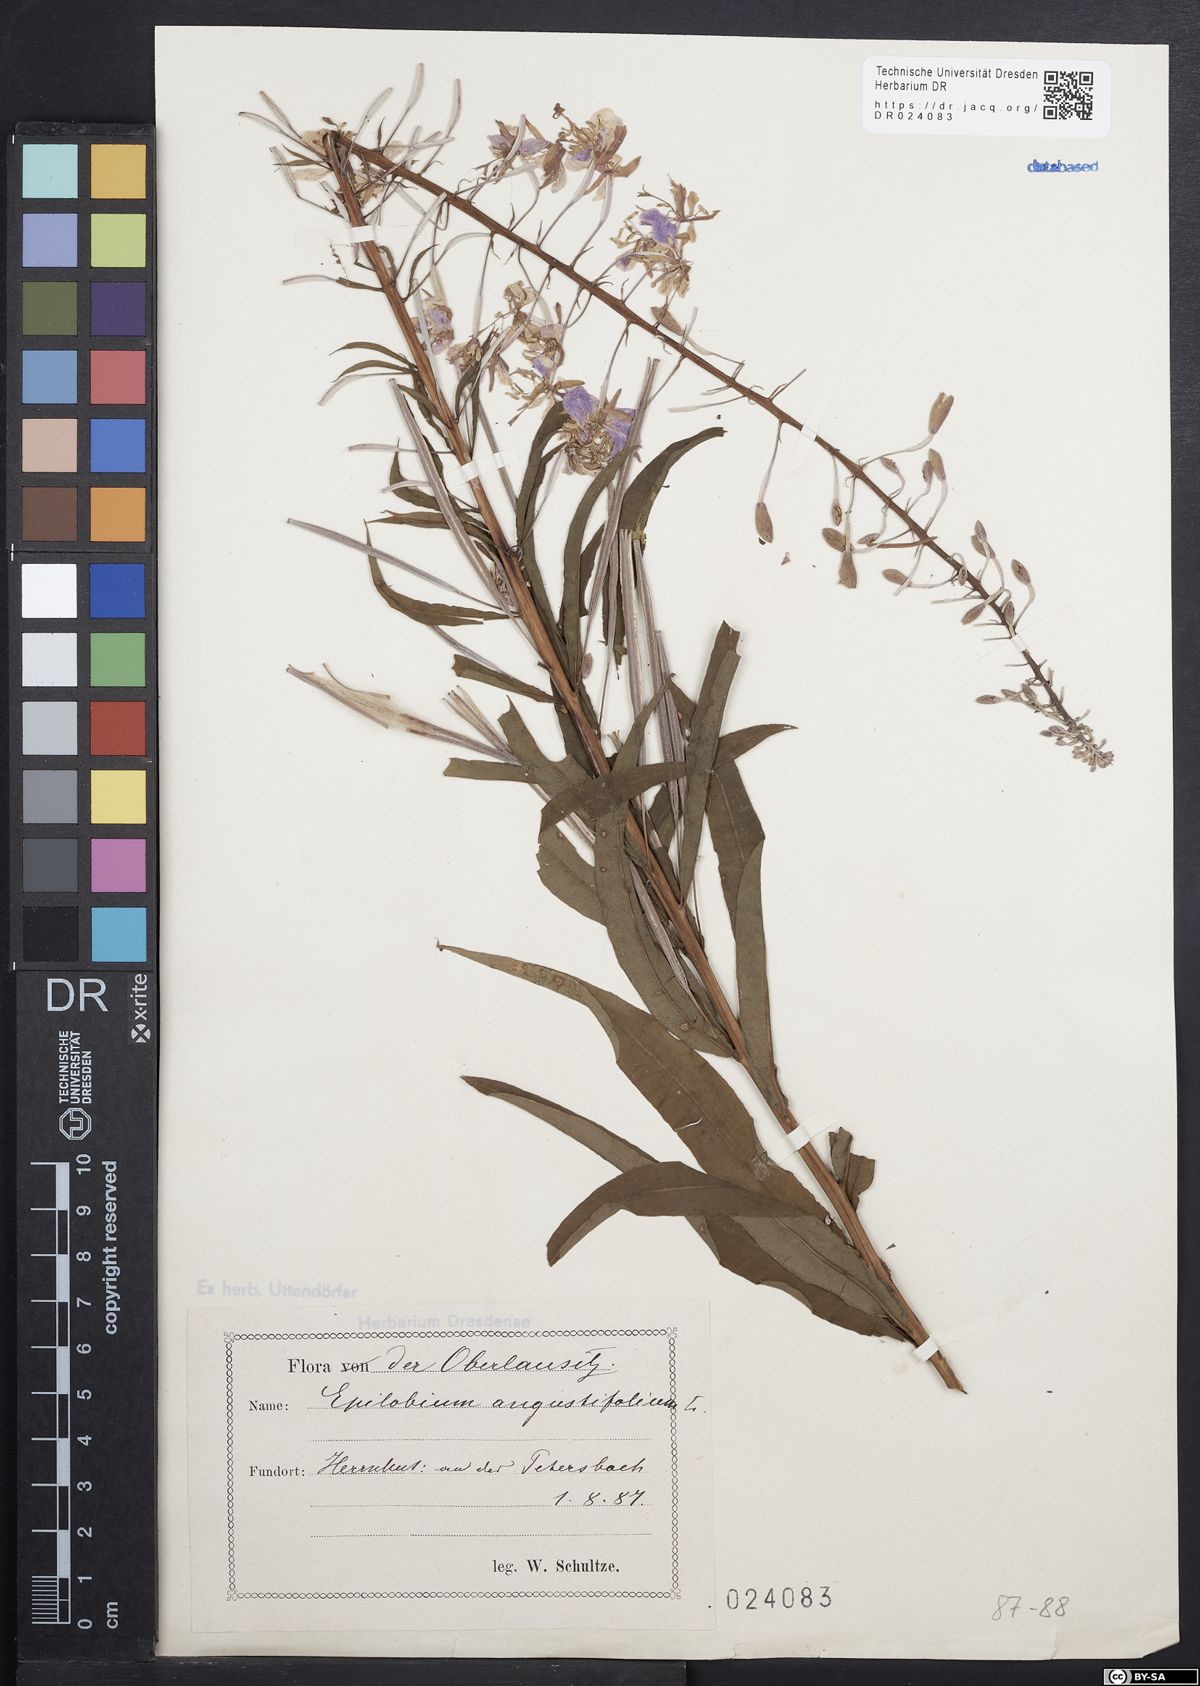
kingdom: Plantae
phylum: Tracheophyta
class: Magnoliopsida
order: Myrtales
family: Onagraceae
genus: Chamaenerion
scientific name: Chamaenerion angustifolium
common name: Fireweed
